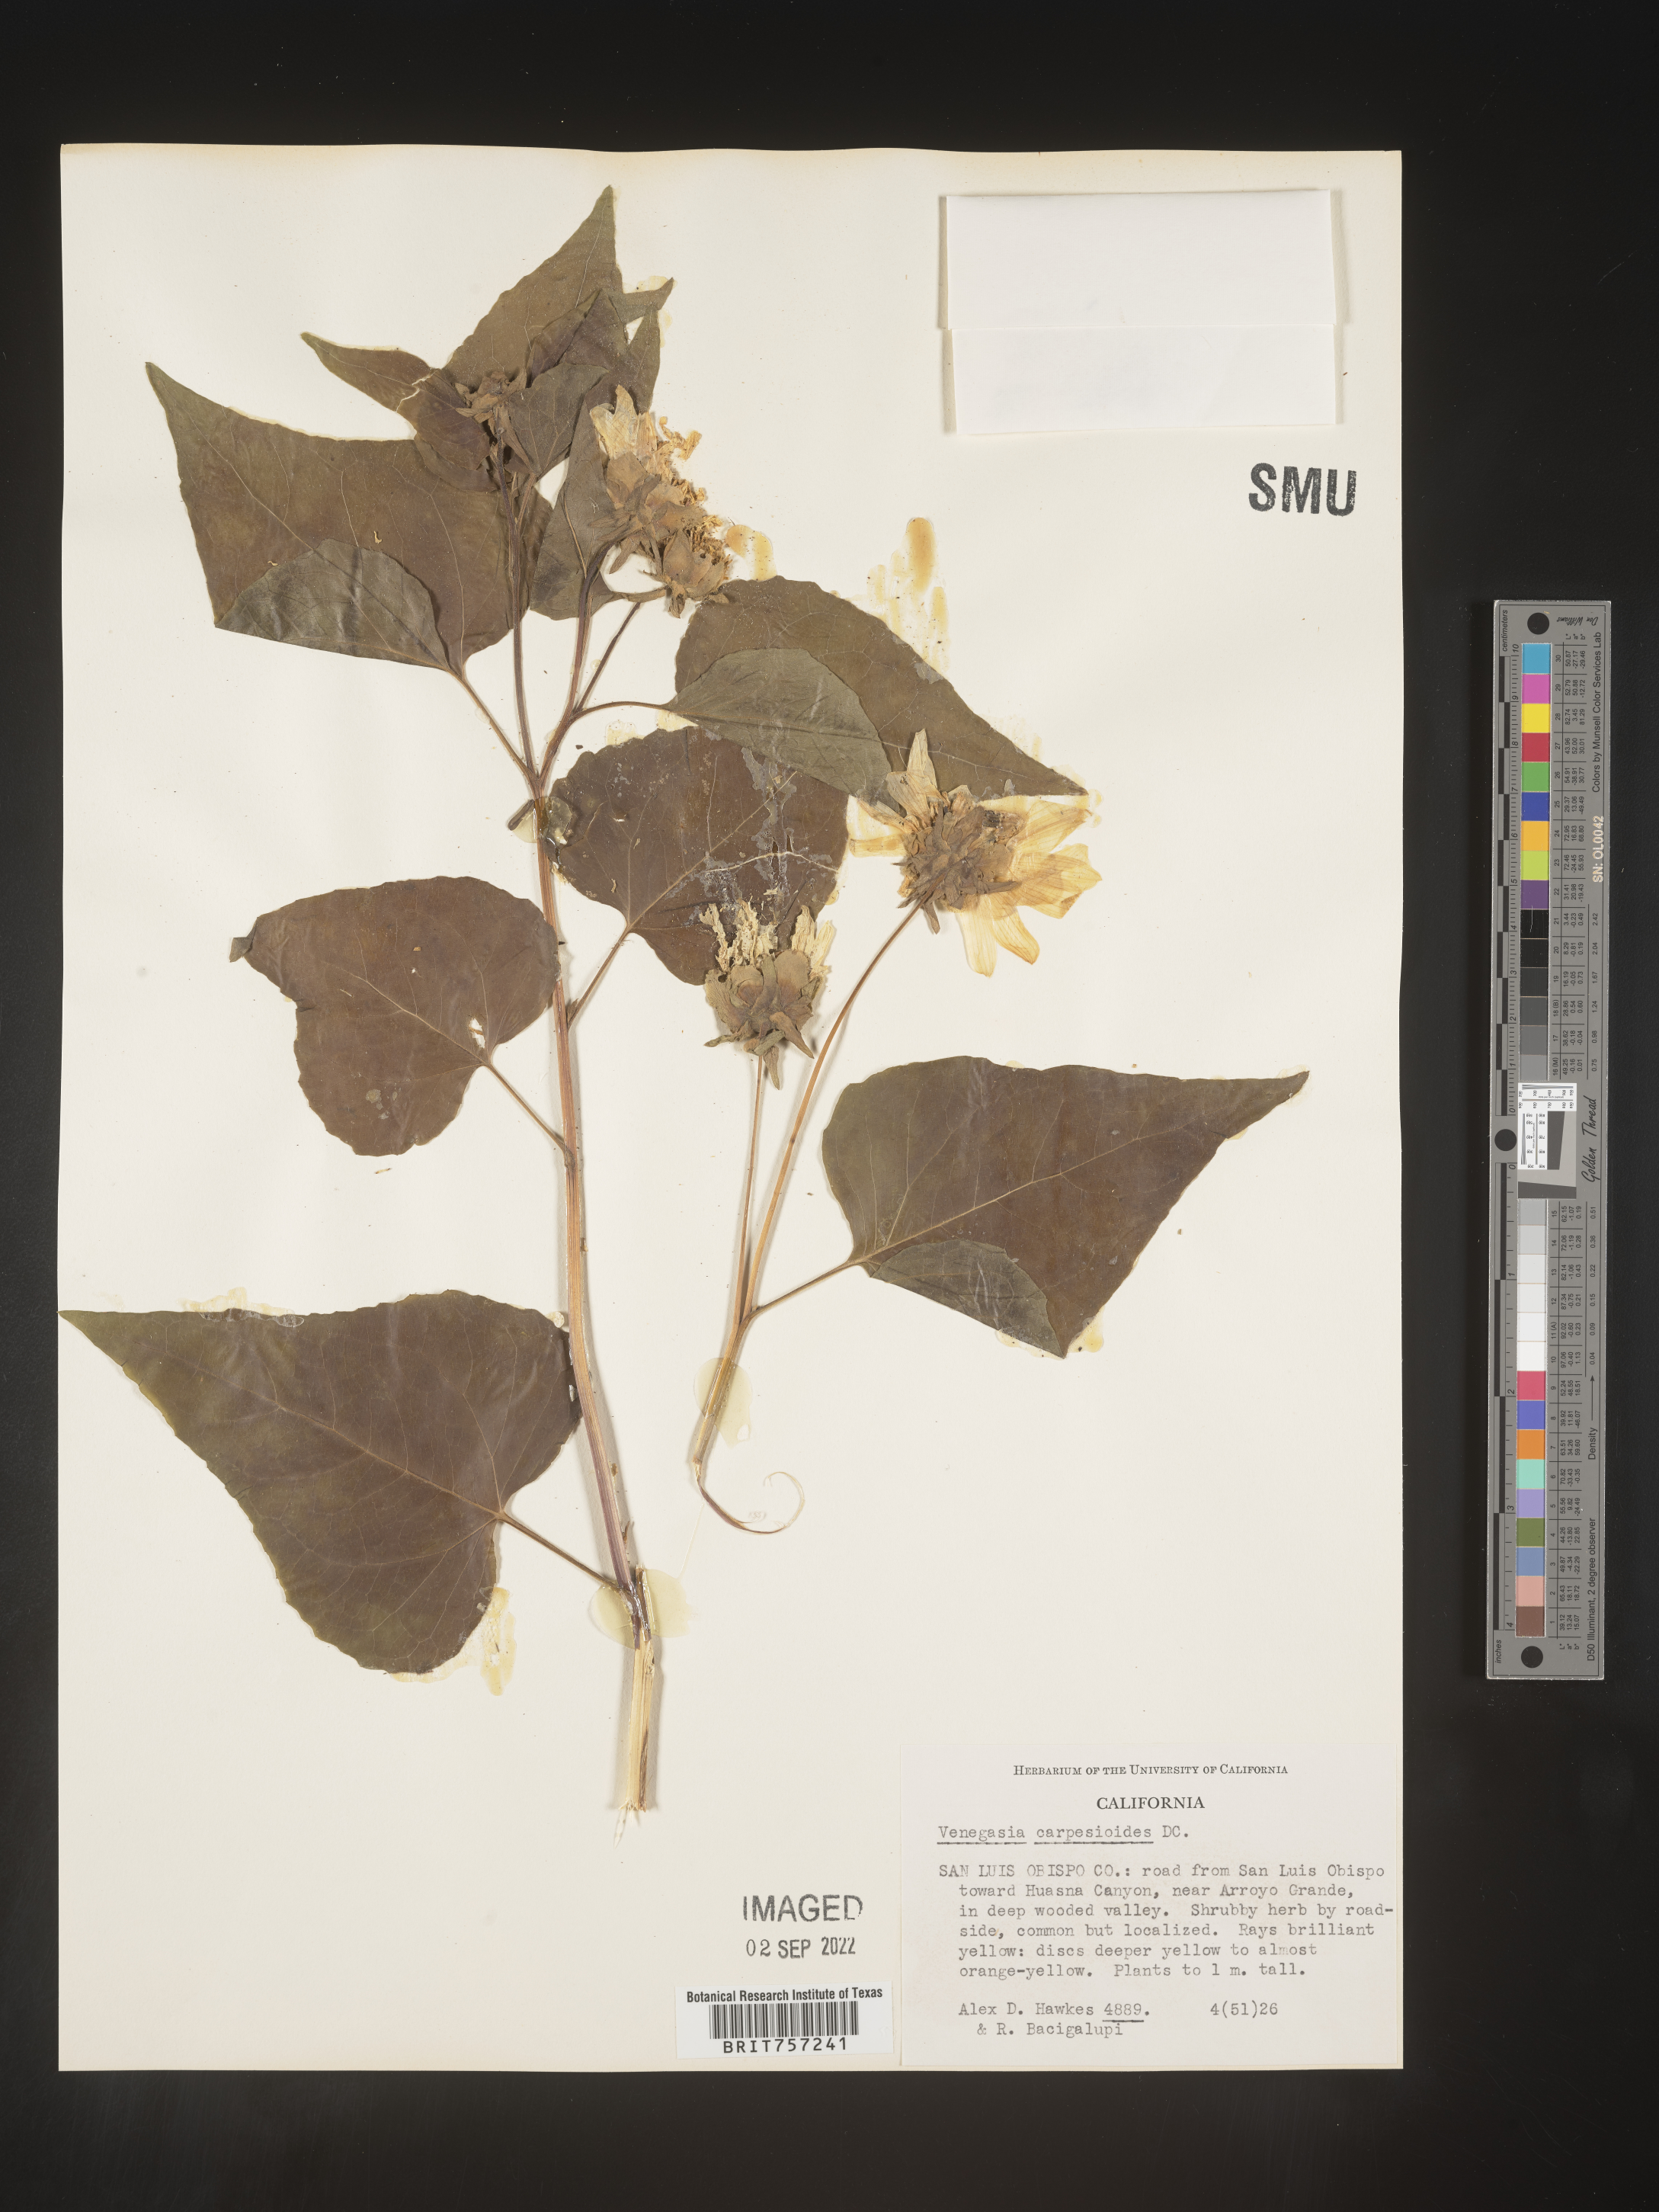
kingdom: Plantae
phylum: Tracheophyta
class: Magnoliopsida
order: Asterales
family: Asteraceae
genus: Venegasia
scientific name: Venegasia
